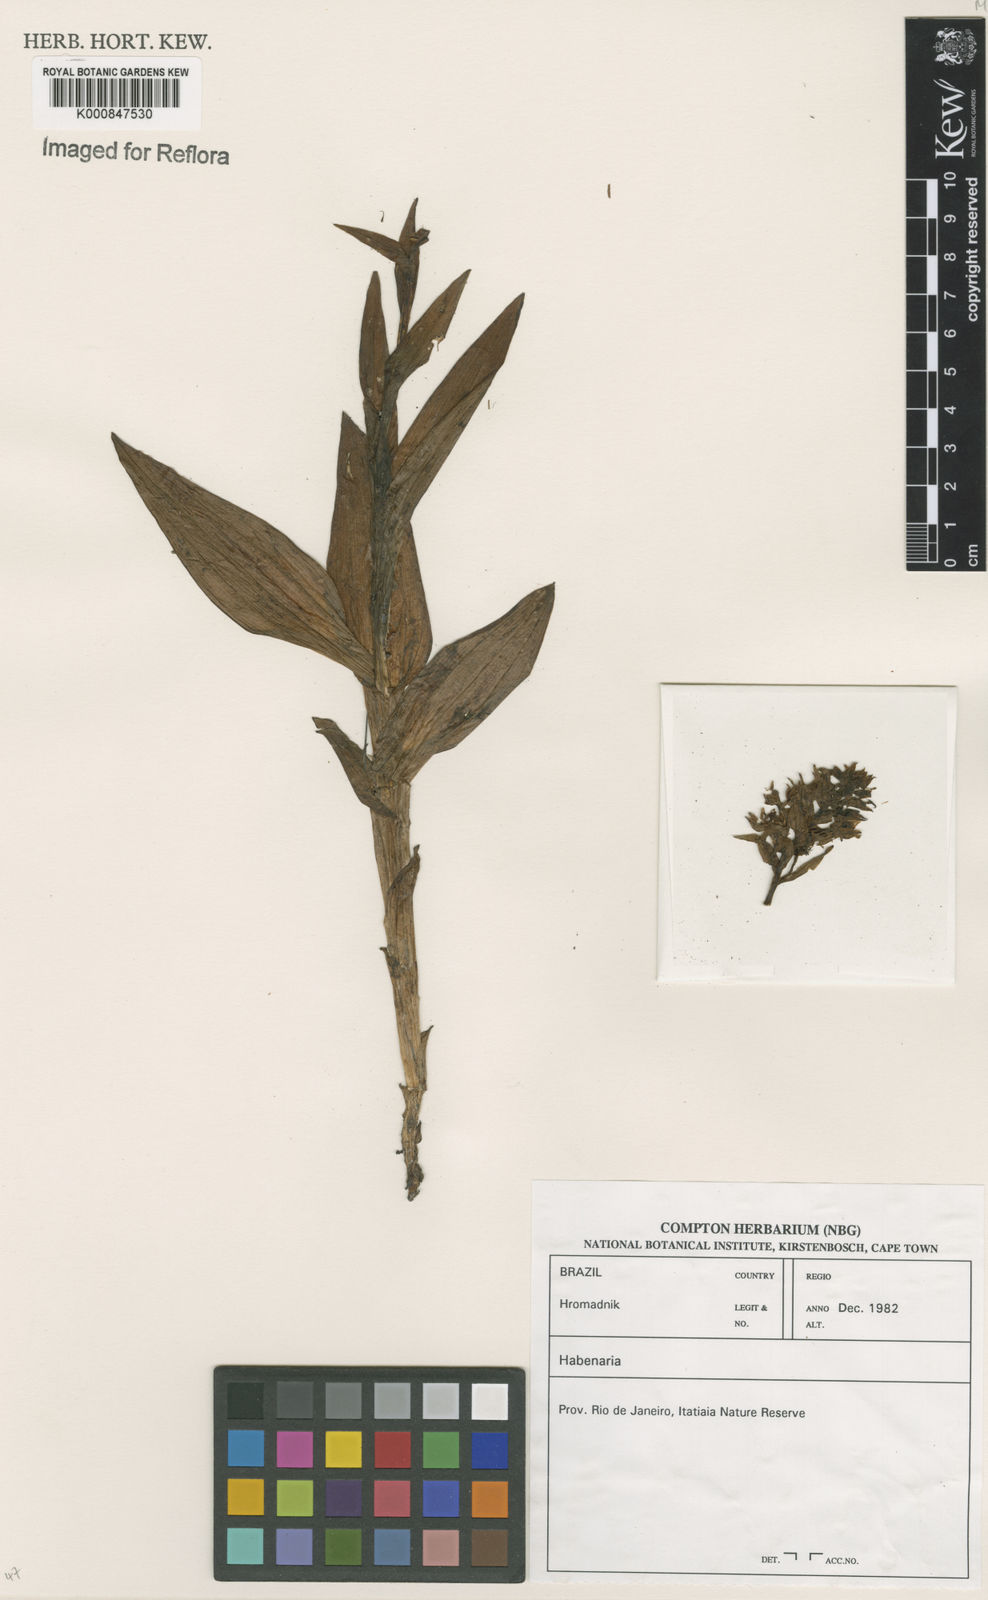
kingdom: Plantae
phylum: Tracheophyta
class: Liliopsida
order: Asparagales
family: Orchidaceae
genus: Habenaria
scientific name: Habenaria
